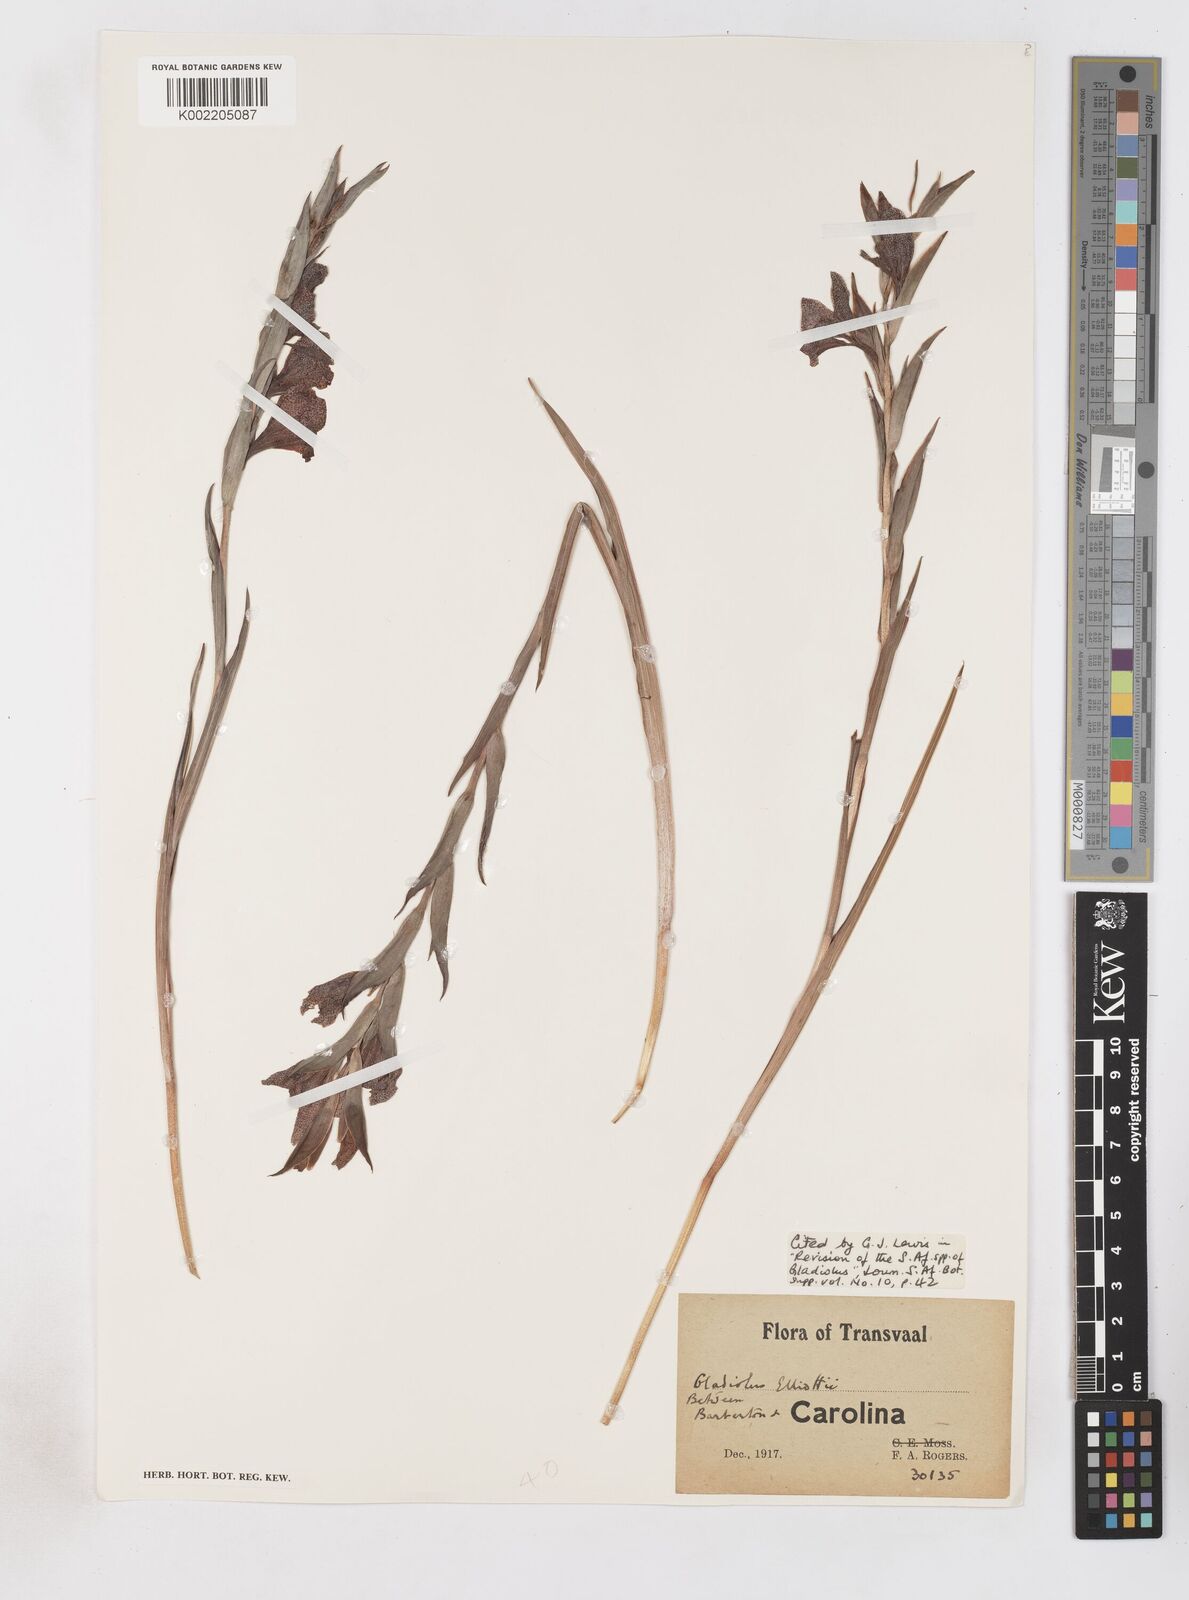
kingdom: Plantae
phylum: Tracheophyta
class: Liliopsida
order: Asparagales
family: Iridaceae
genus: Gladiolus
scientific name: Gladiolus ecklonii
